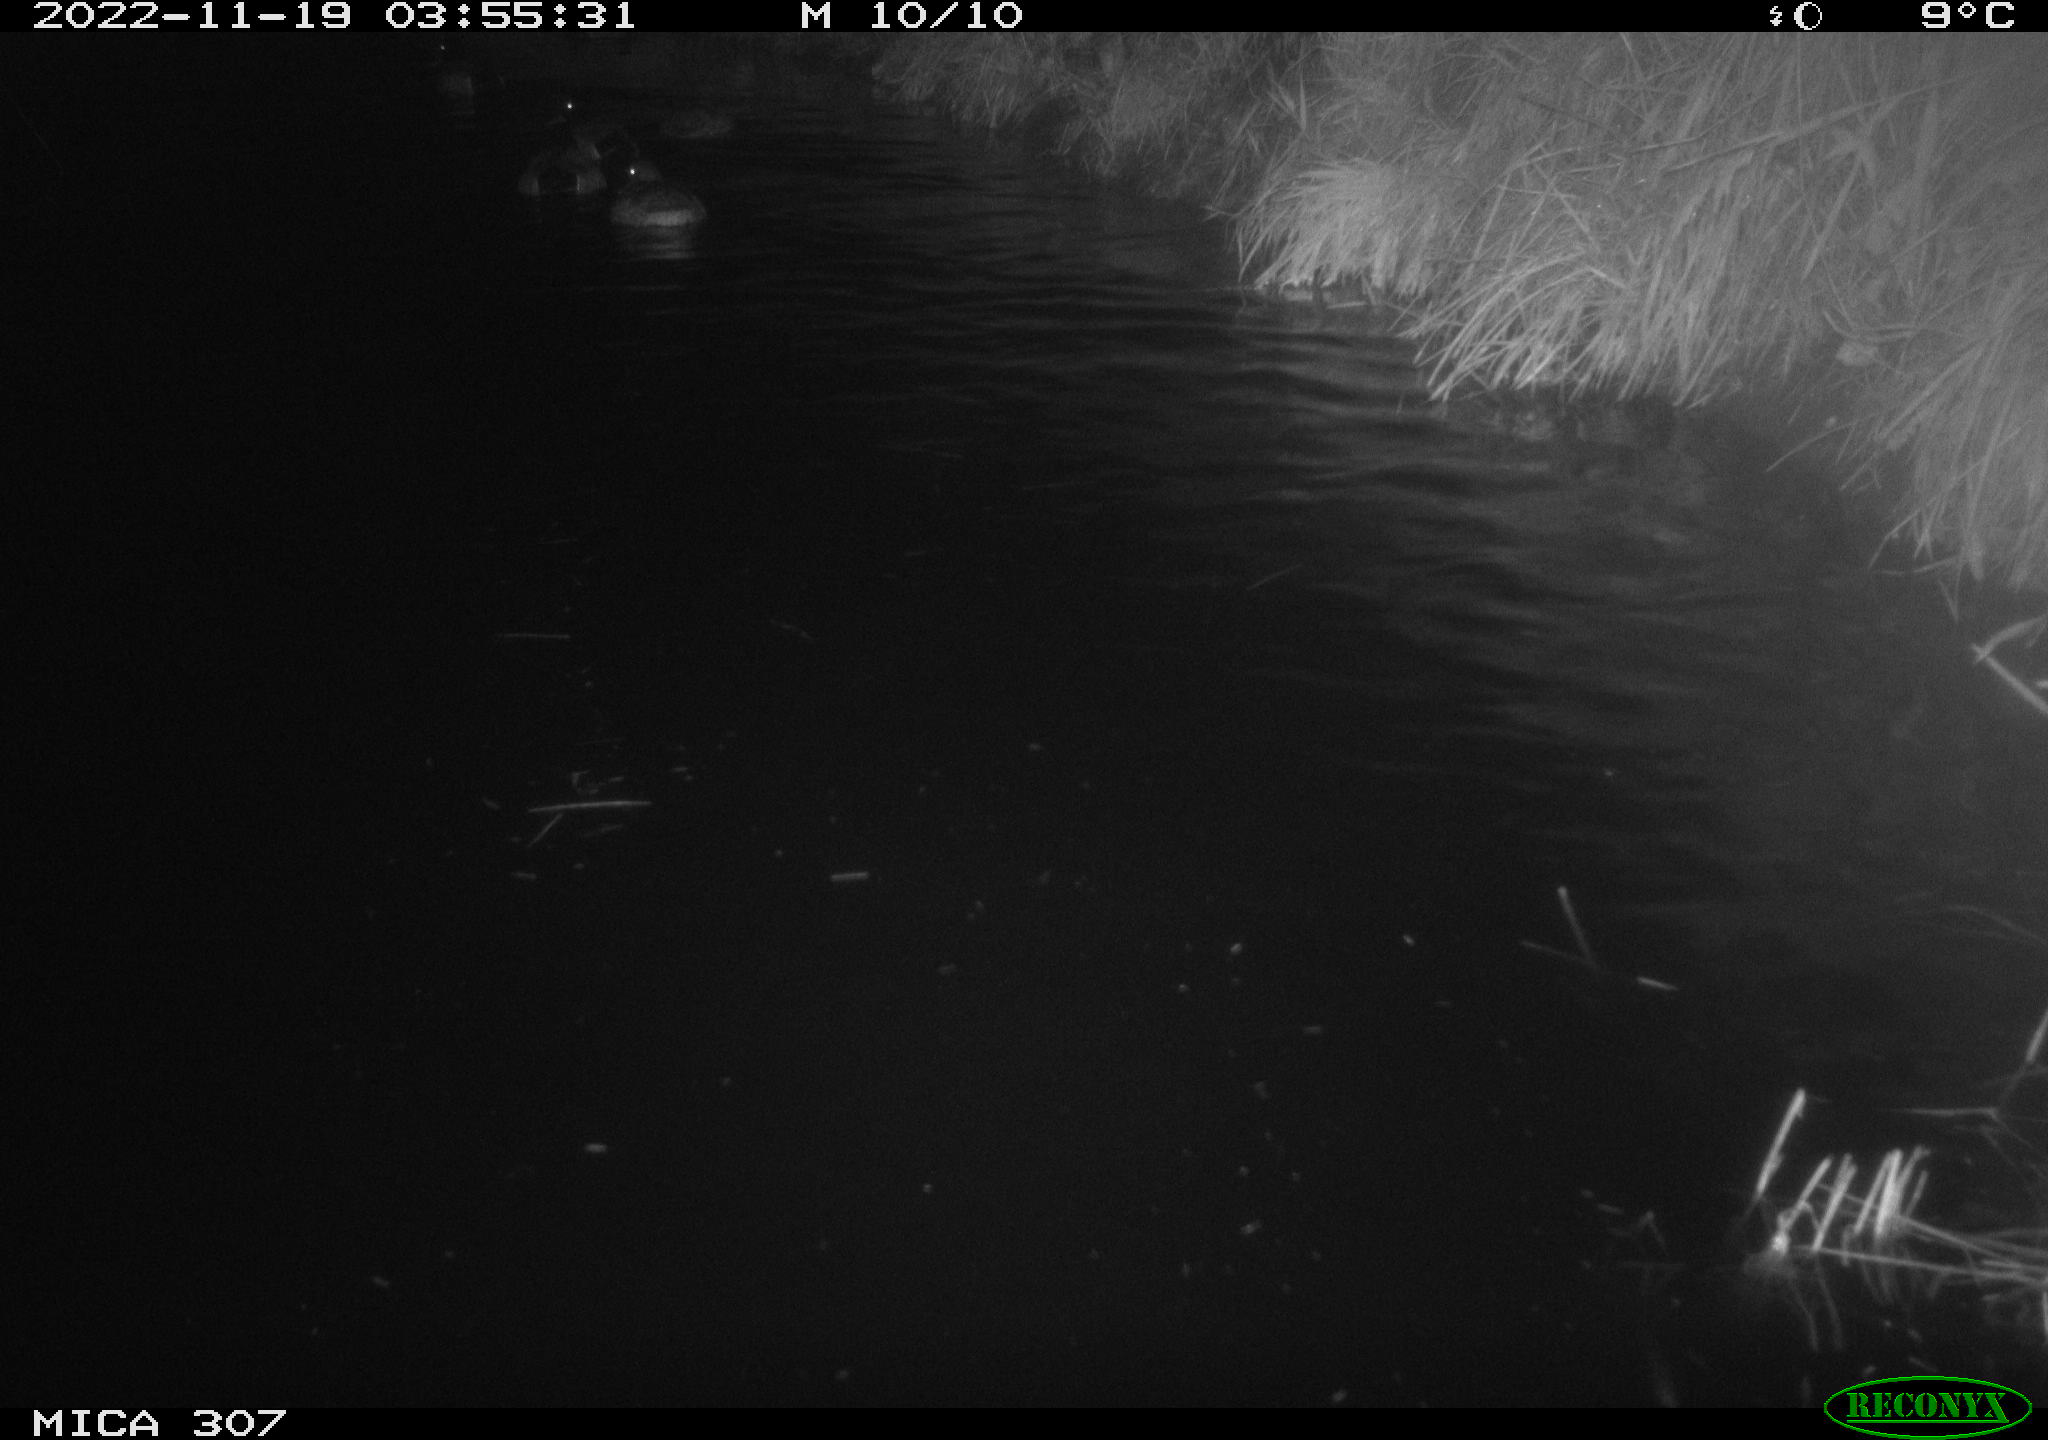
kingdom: Animalia
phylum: Chordata
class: Aves
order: Anseriformes
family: Anatidae
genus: Anas
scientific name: Anas
